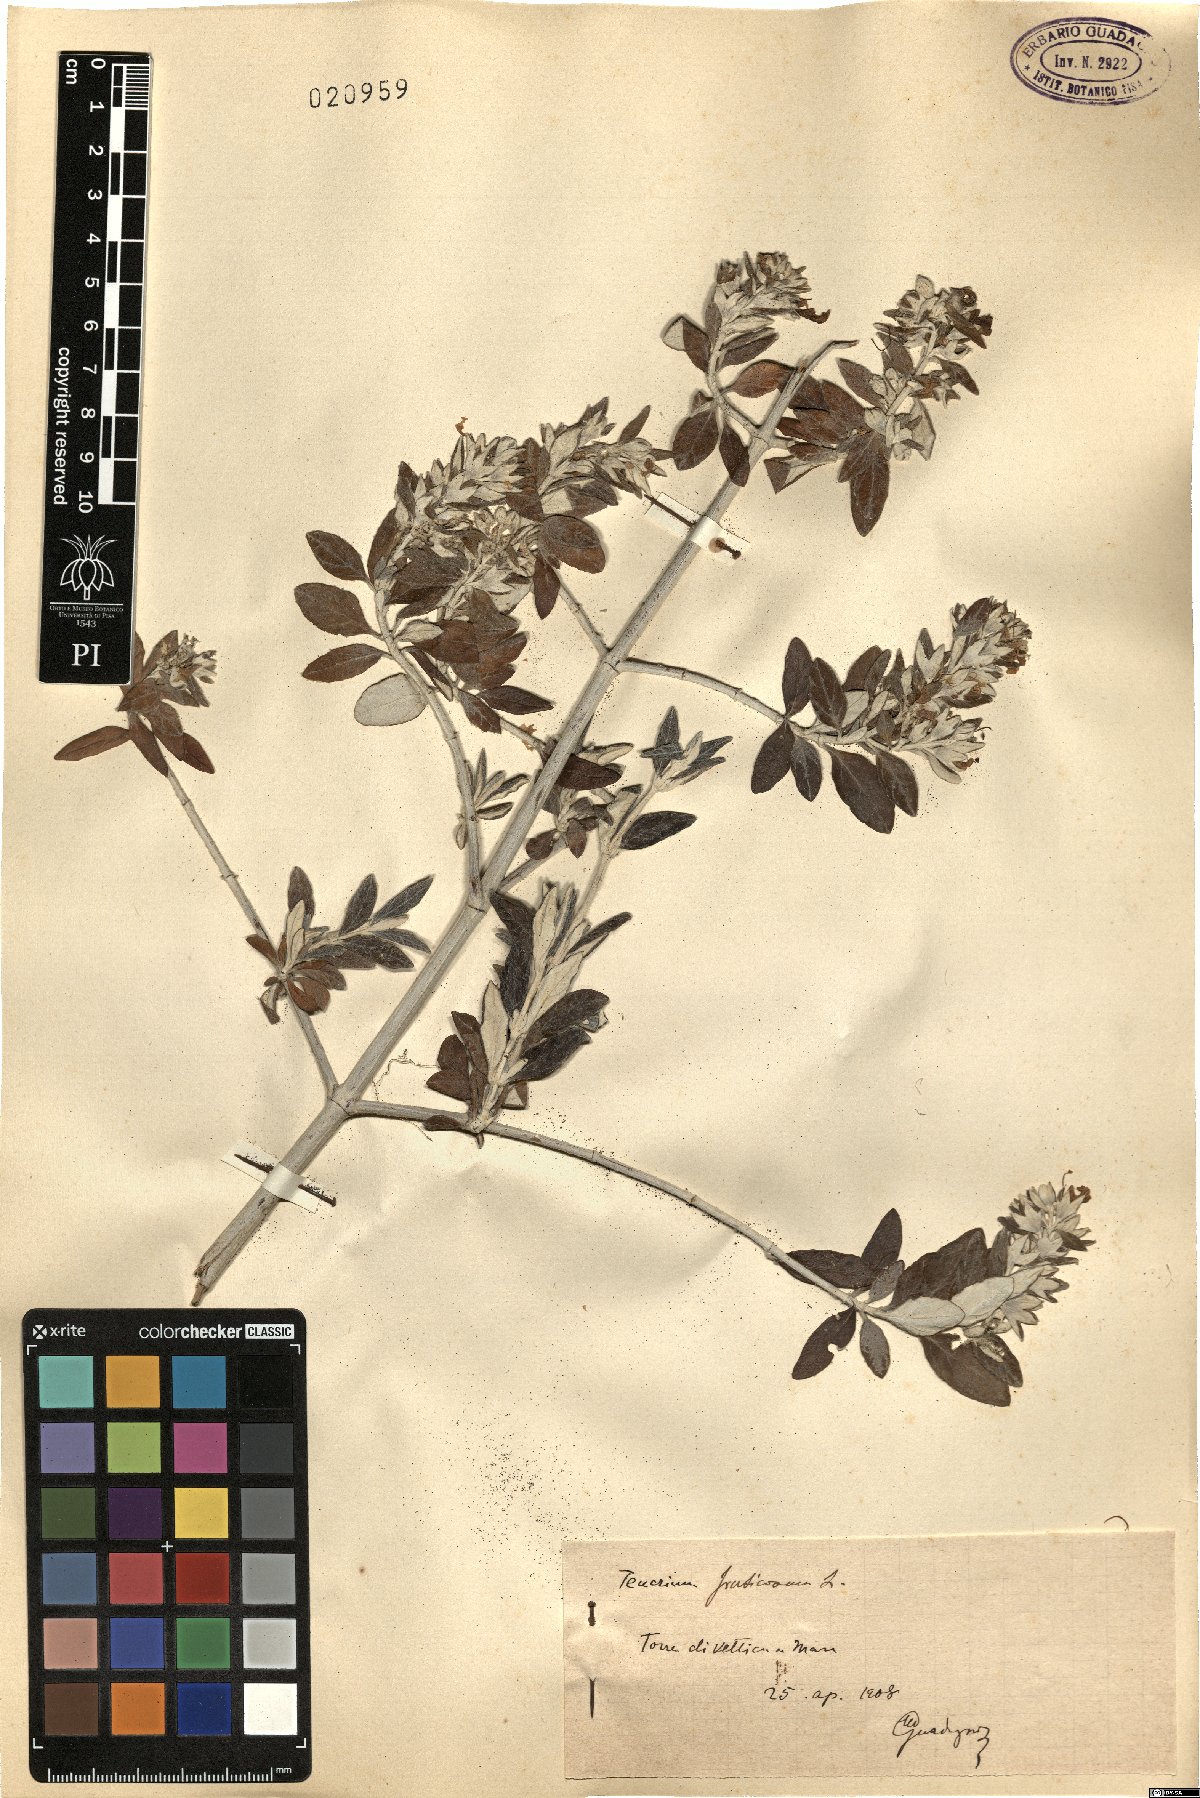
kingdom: Plantae
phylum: Tracheophyta
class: Magnoliopsida
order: Lamiales
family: Lamiaceae
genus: Teucrium
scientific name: Teucrium fruticans
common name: Shrubby germander
